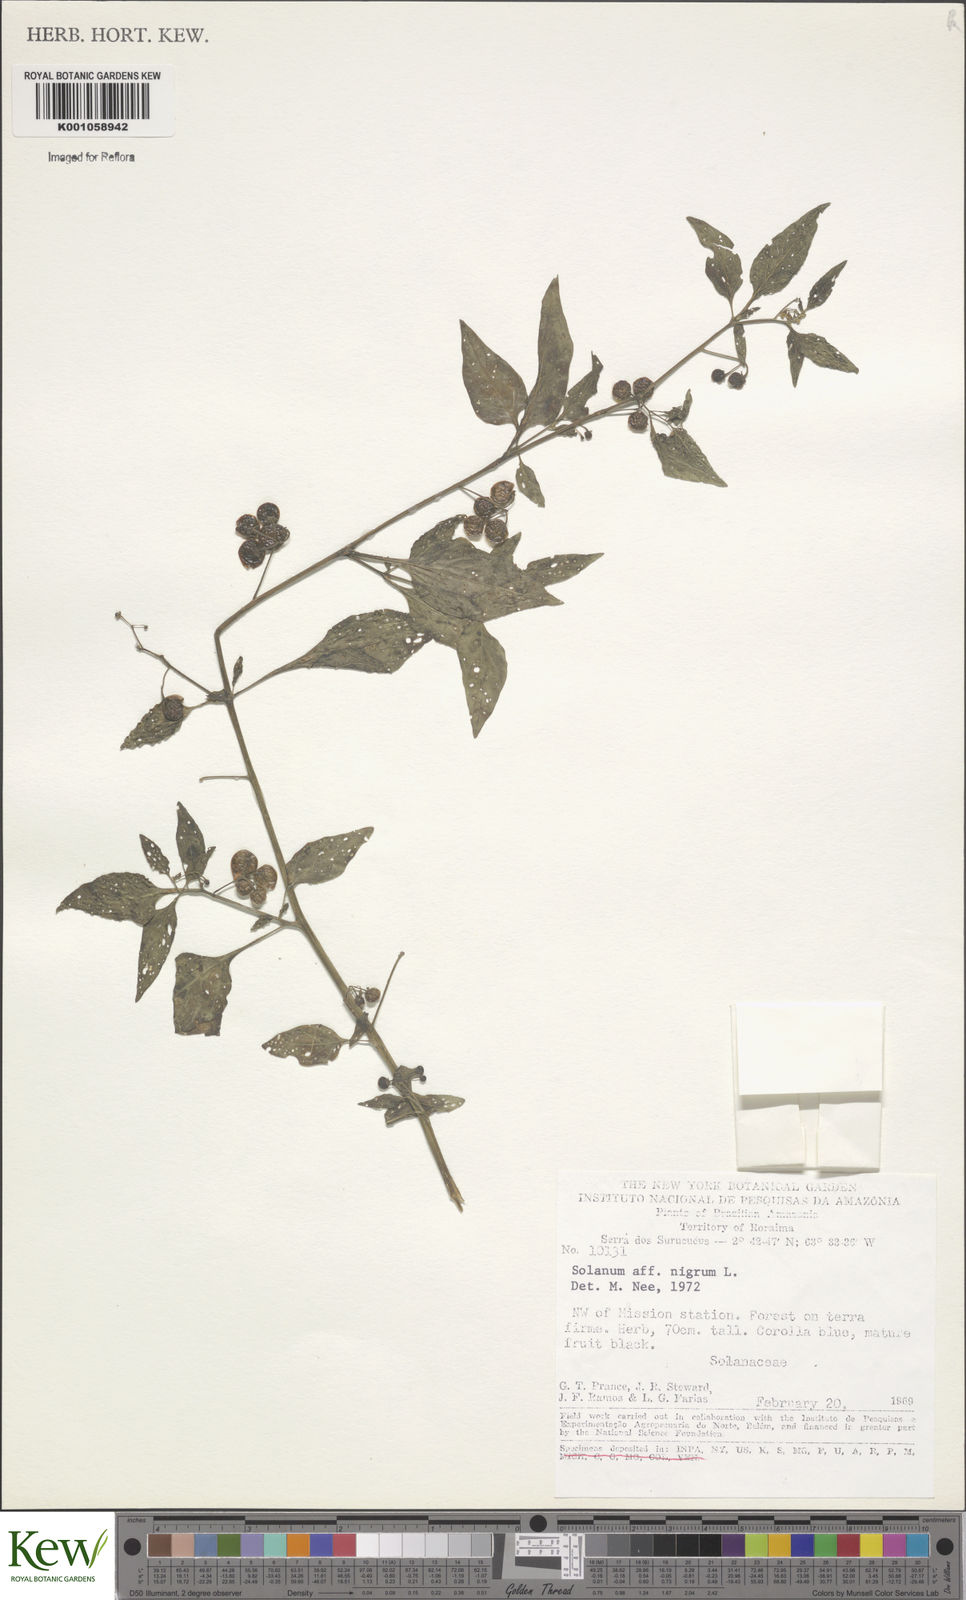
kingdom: Plantae
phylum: Tracheophyta
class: Magnoliopsida
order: Solanales
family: Solanaceae
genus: Solanum
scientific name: Solanum nigrum
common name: Black nightshade
